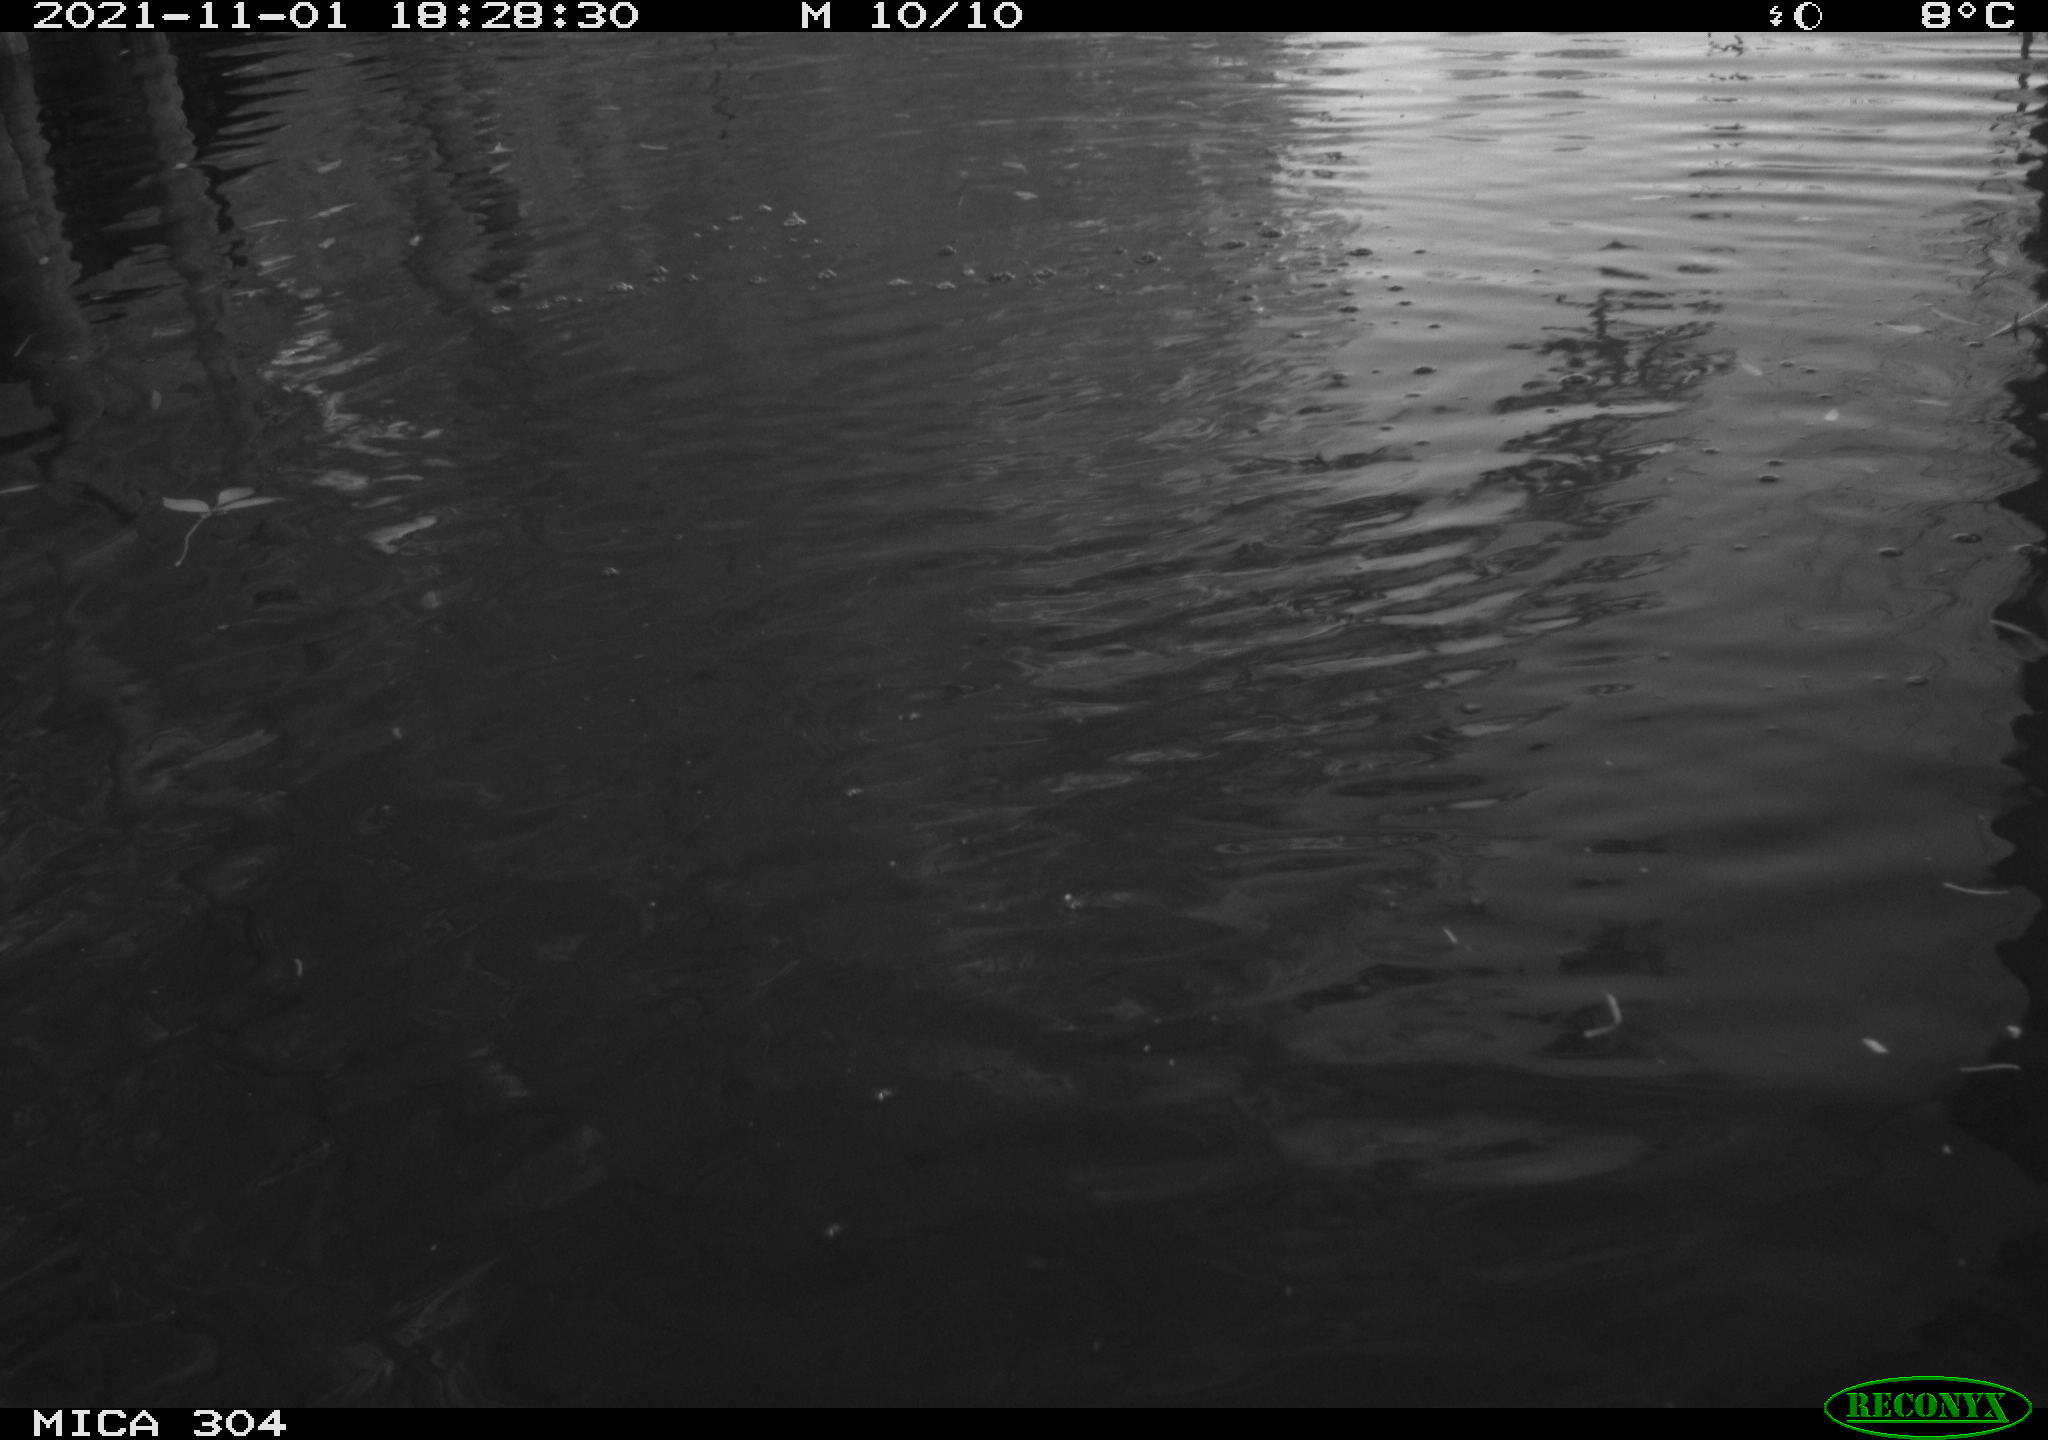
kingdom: Animalia
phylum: Chordata
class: Aves
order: Gruiformes
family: Rallidae
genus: Gallinula
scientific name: Gallinula chloropus
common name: Common moorhen
